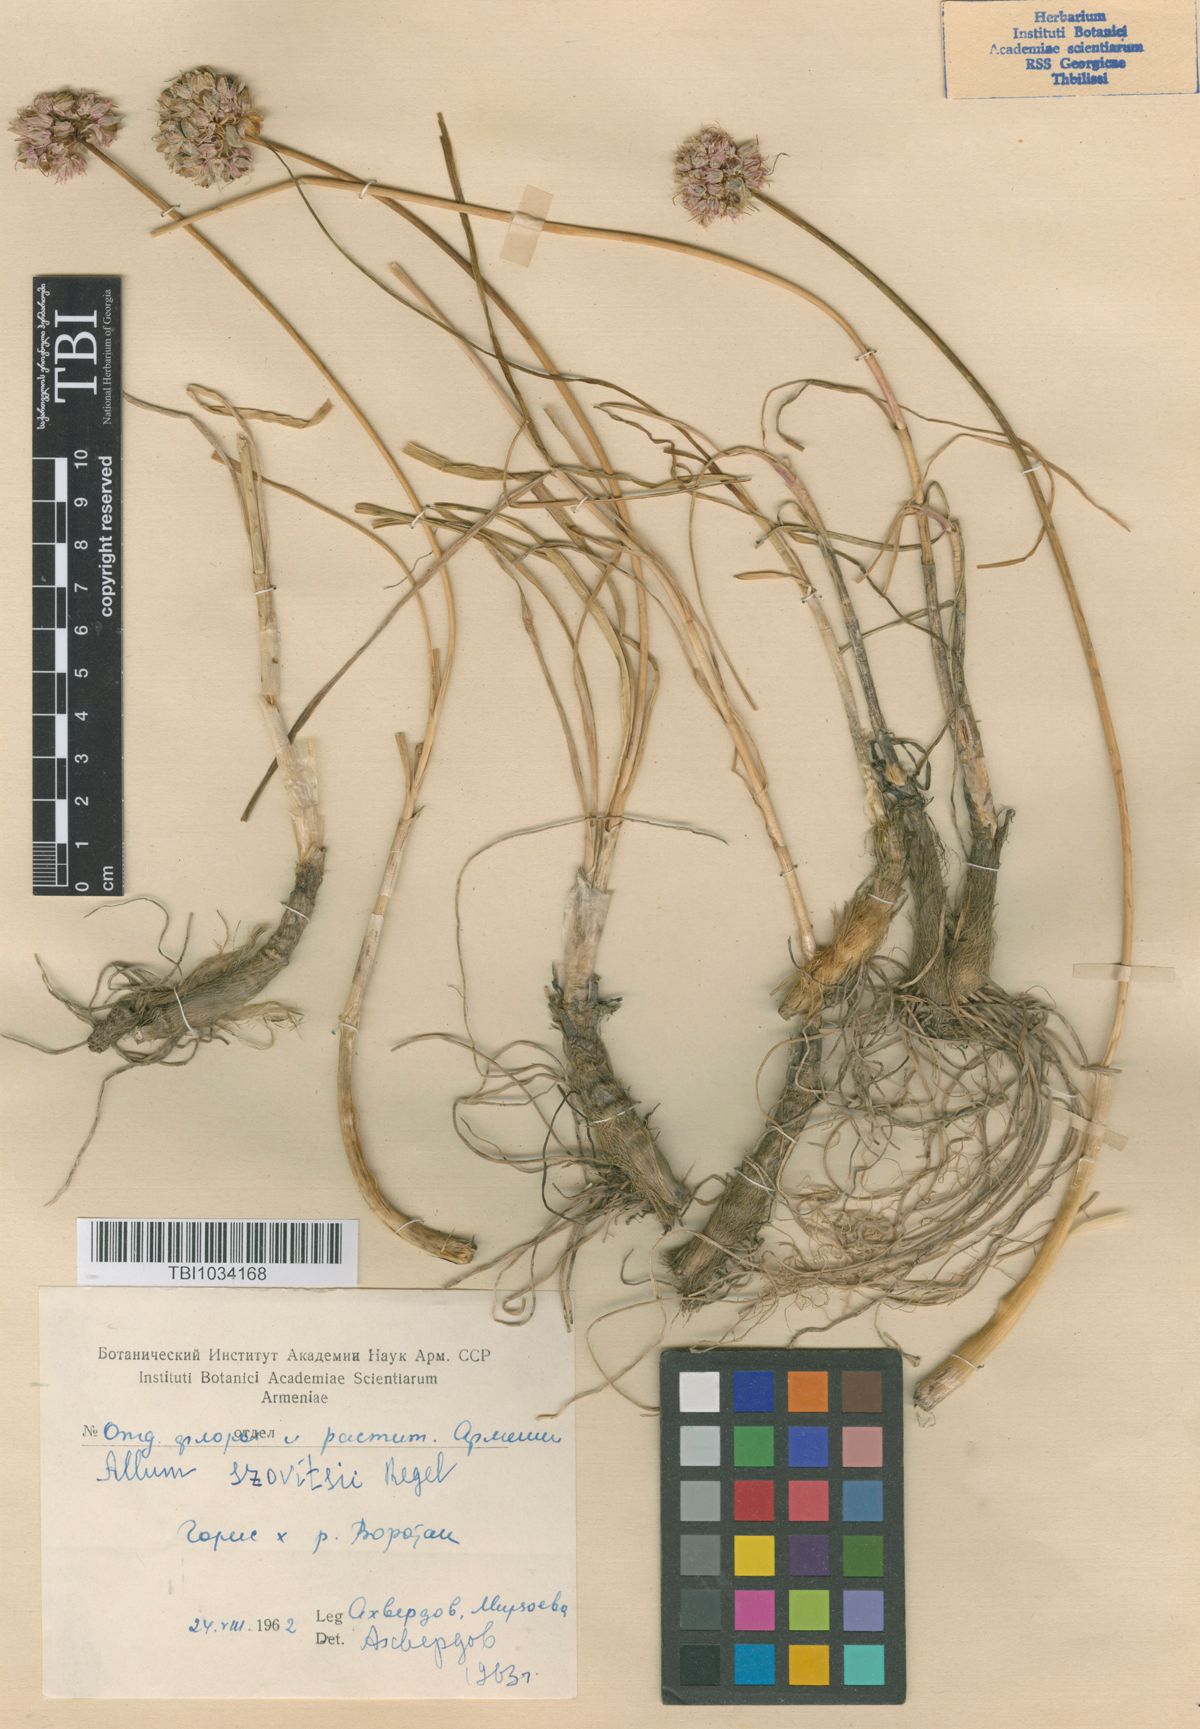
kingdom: Plantae
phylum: Tracheophyta
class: Liliopsida
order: Asparagales
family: Amaryllidaceae
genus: Allium
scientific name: Allium szovitsii
